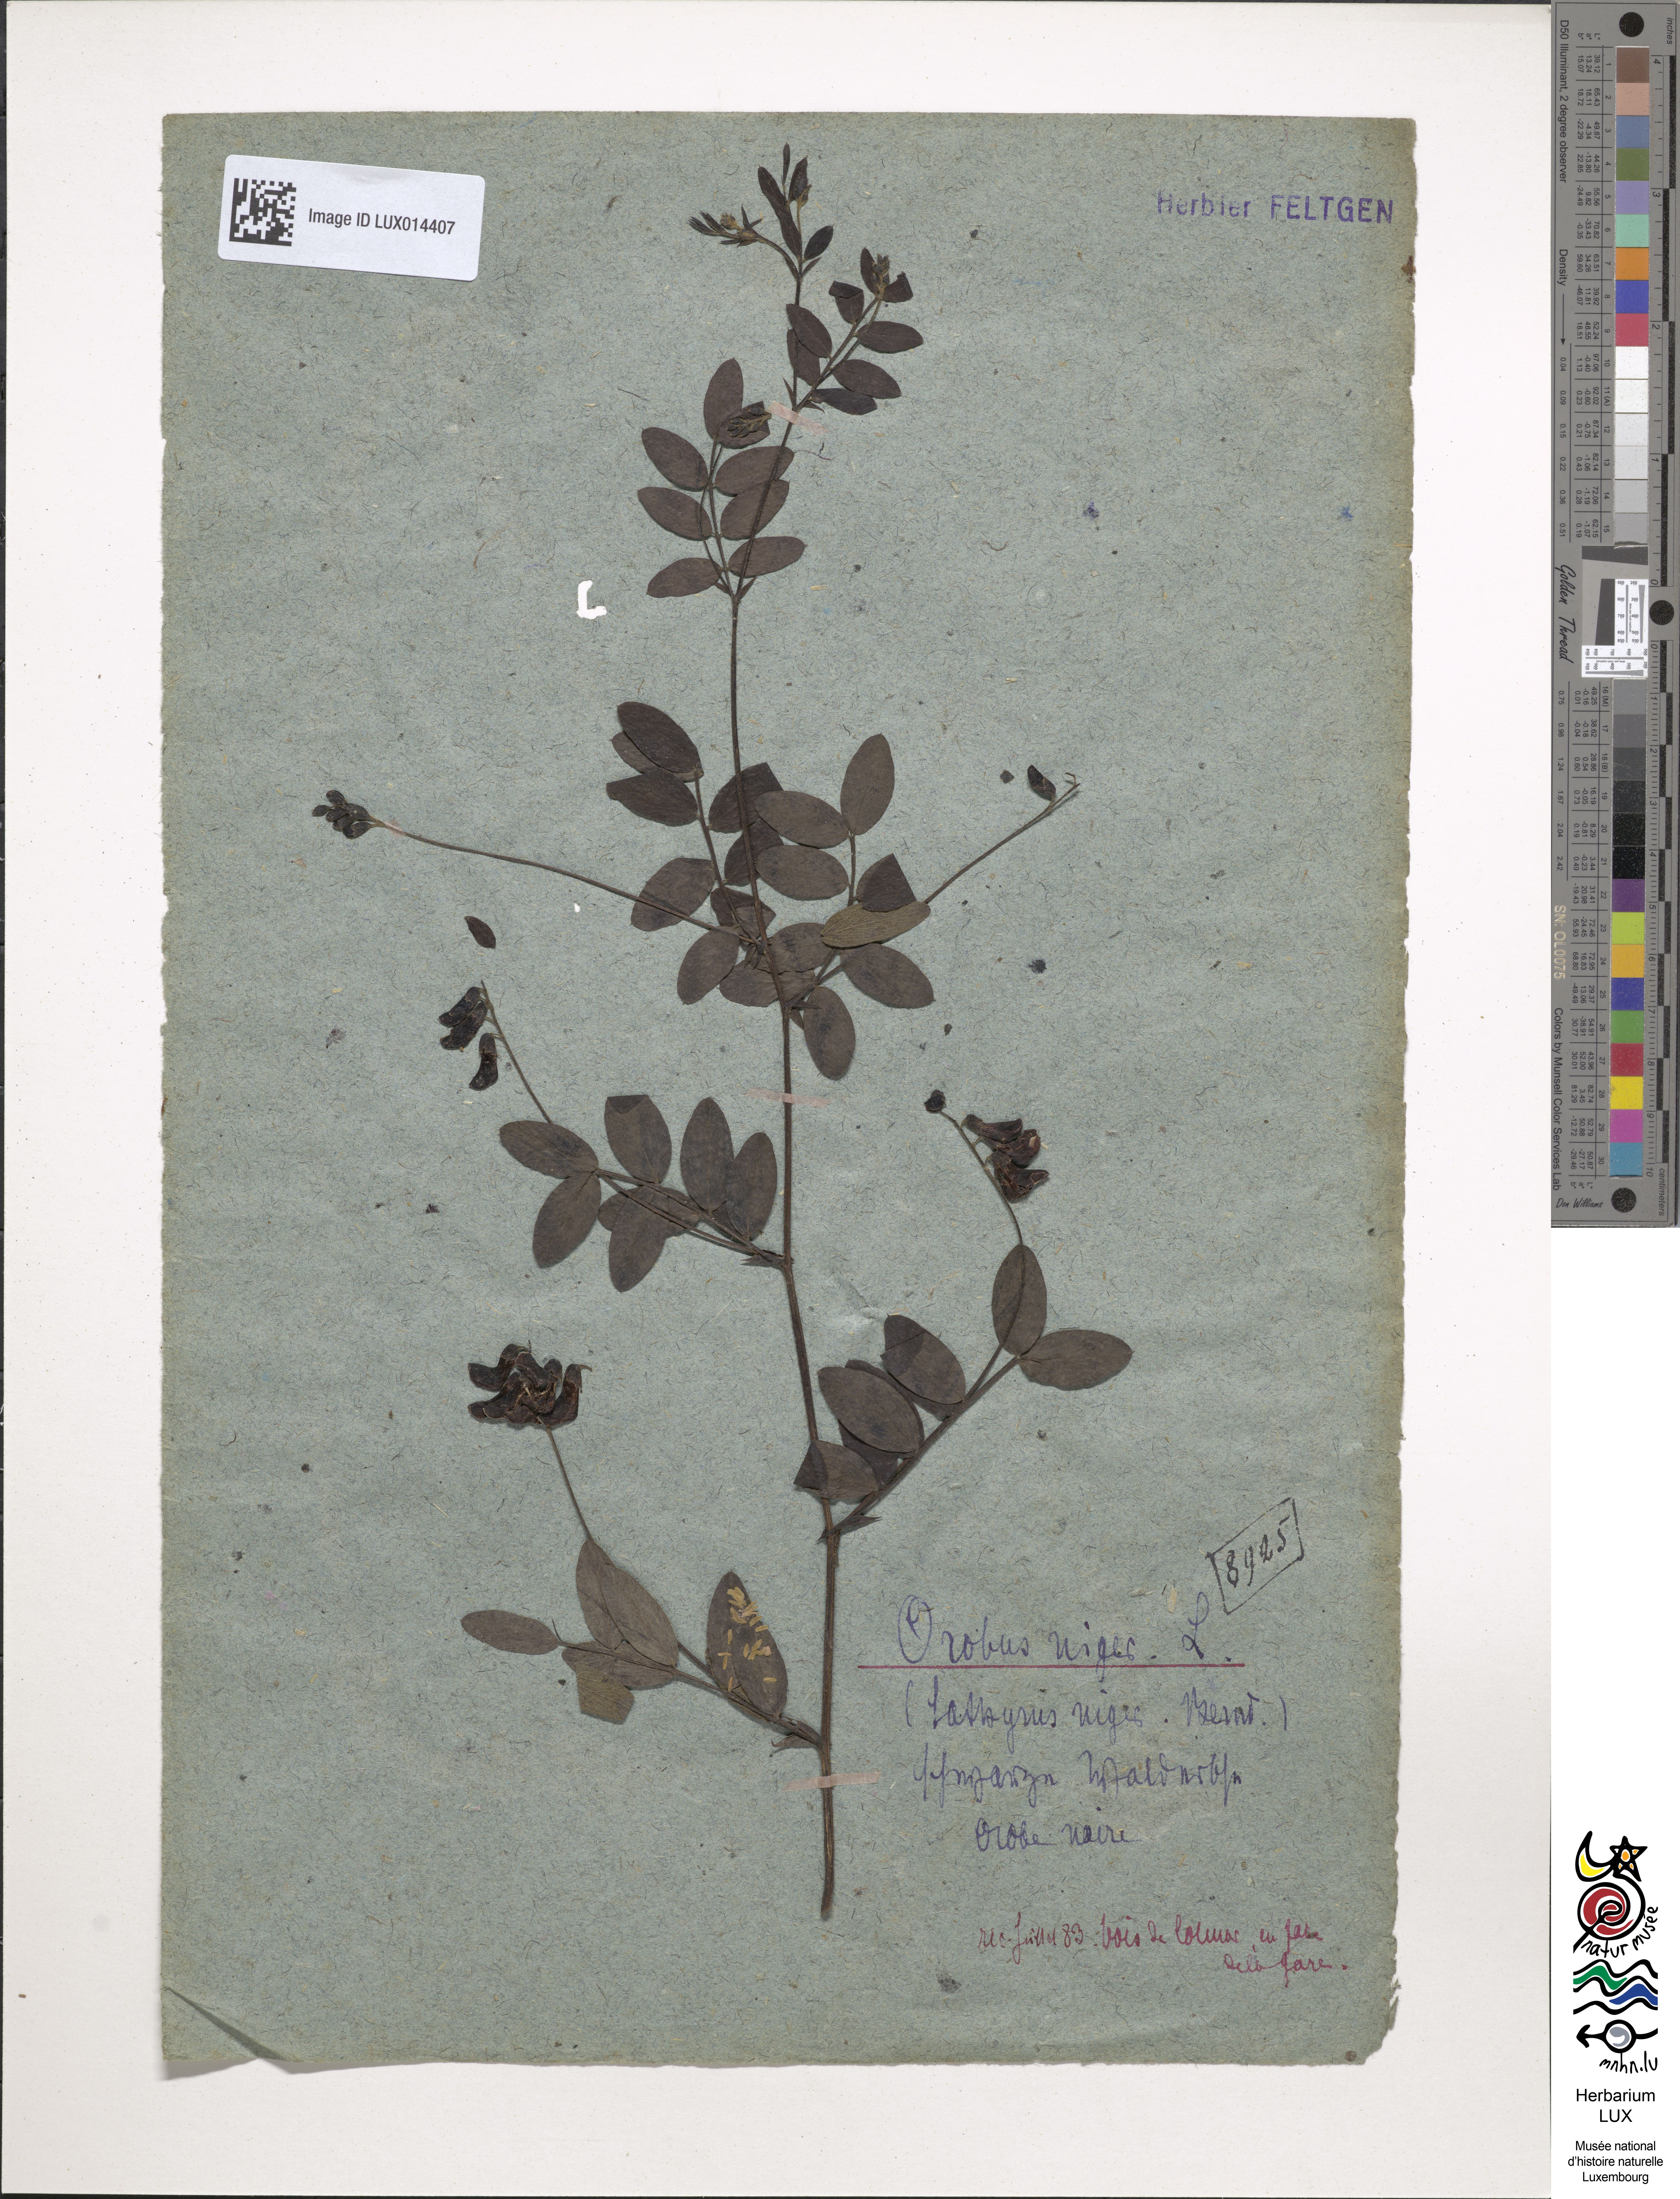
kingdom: Plantae
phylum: Tracheophyta
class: Magnoliopsida
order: Fabales
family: Fabaceae
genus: Lathyrus
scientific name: Lathyrus niger
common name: Black pea
